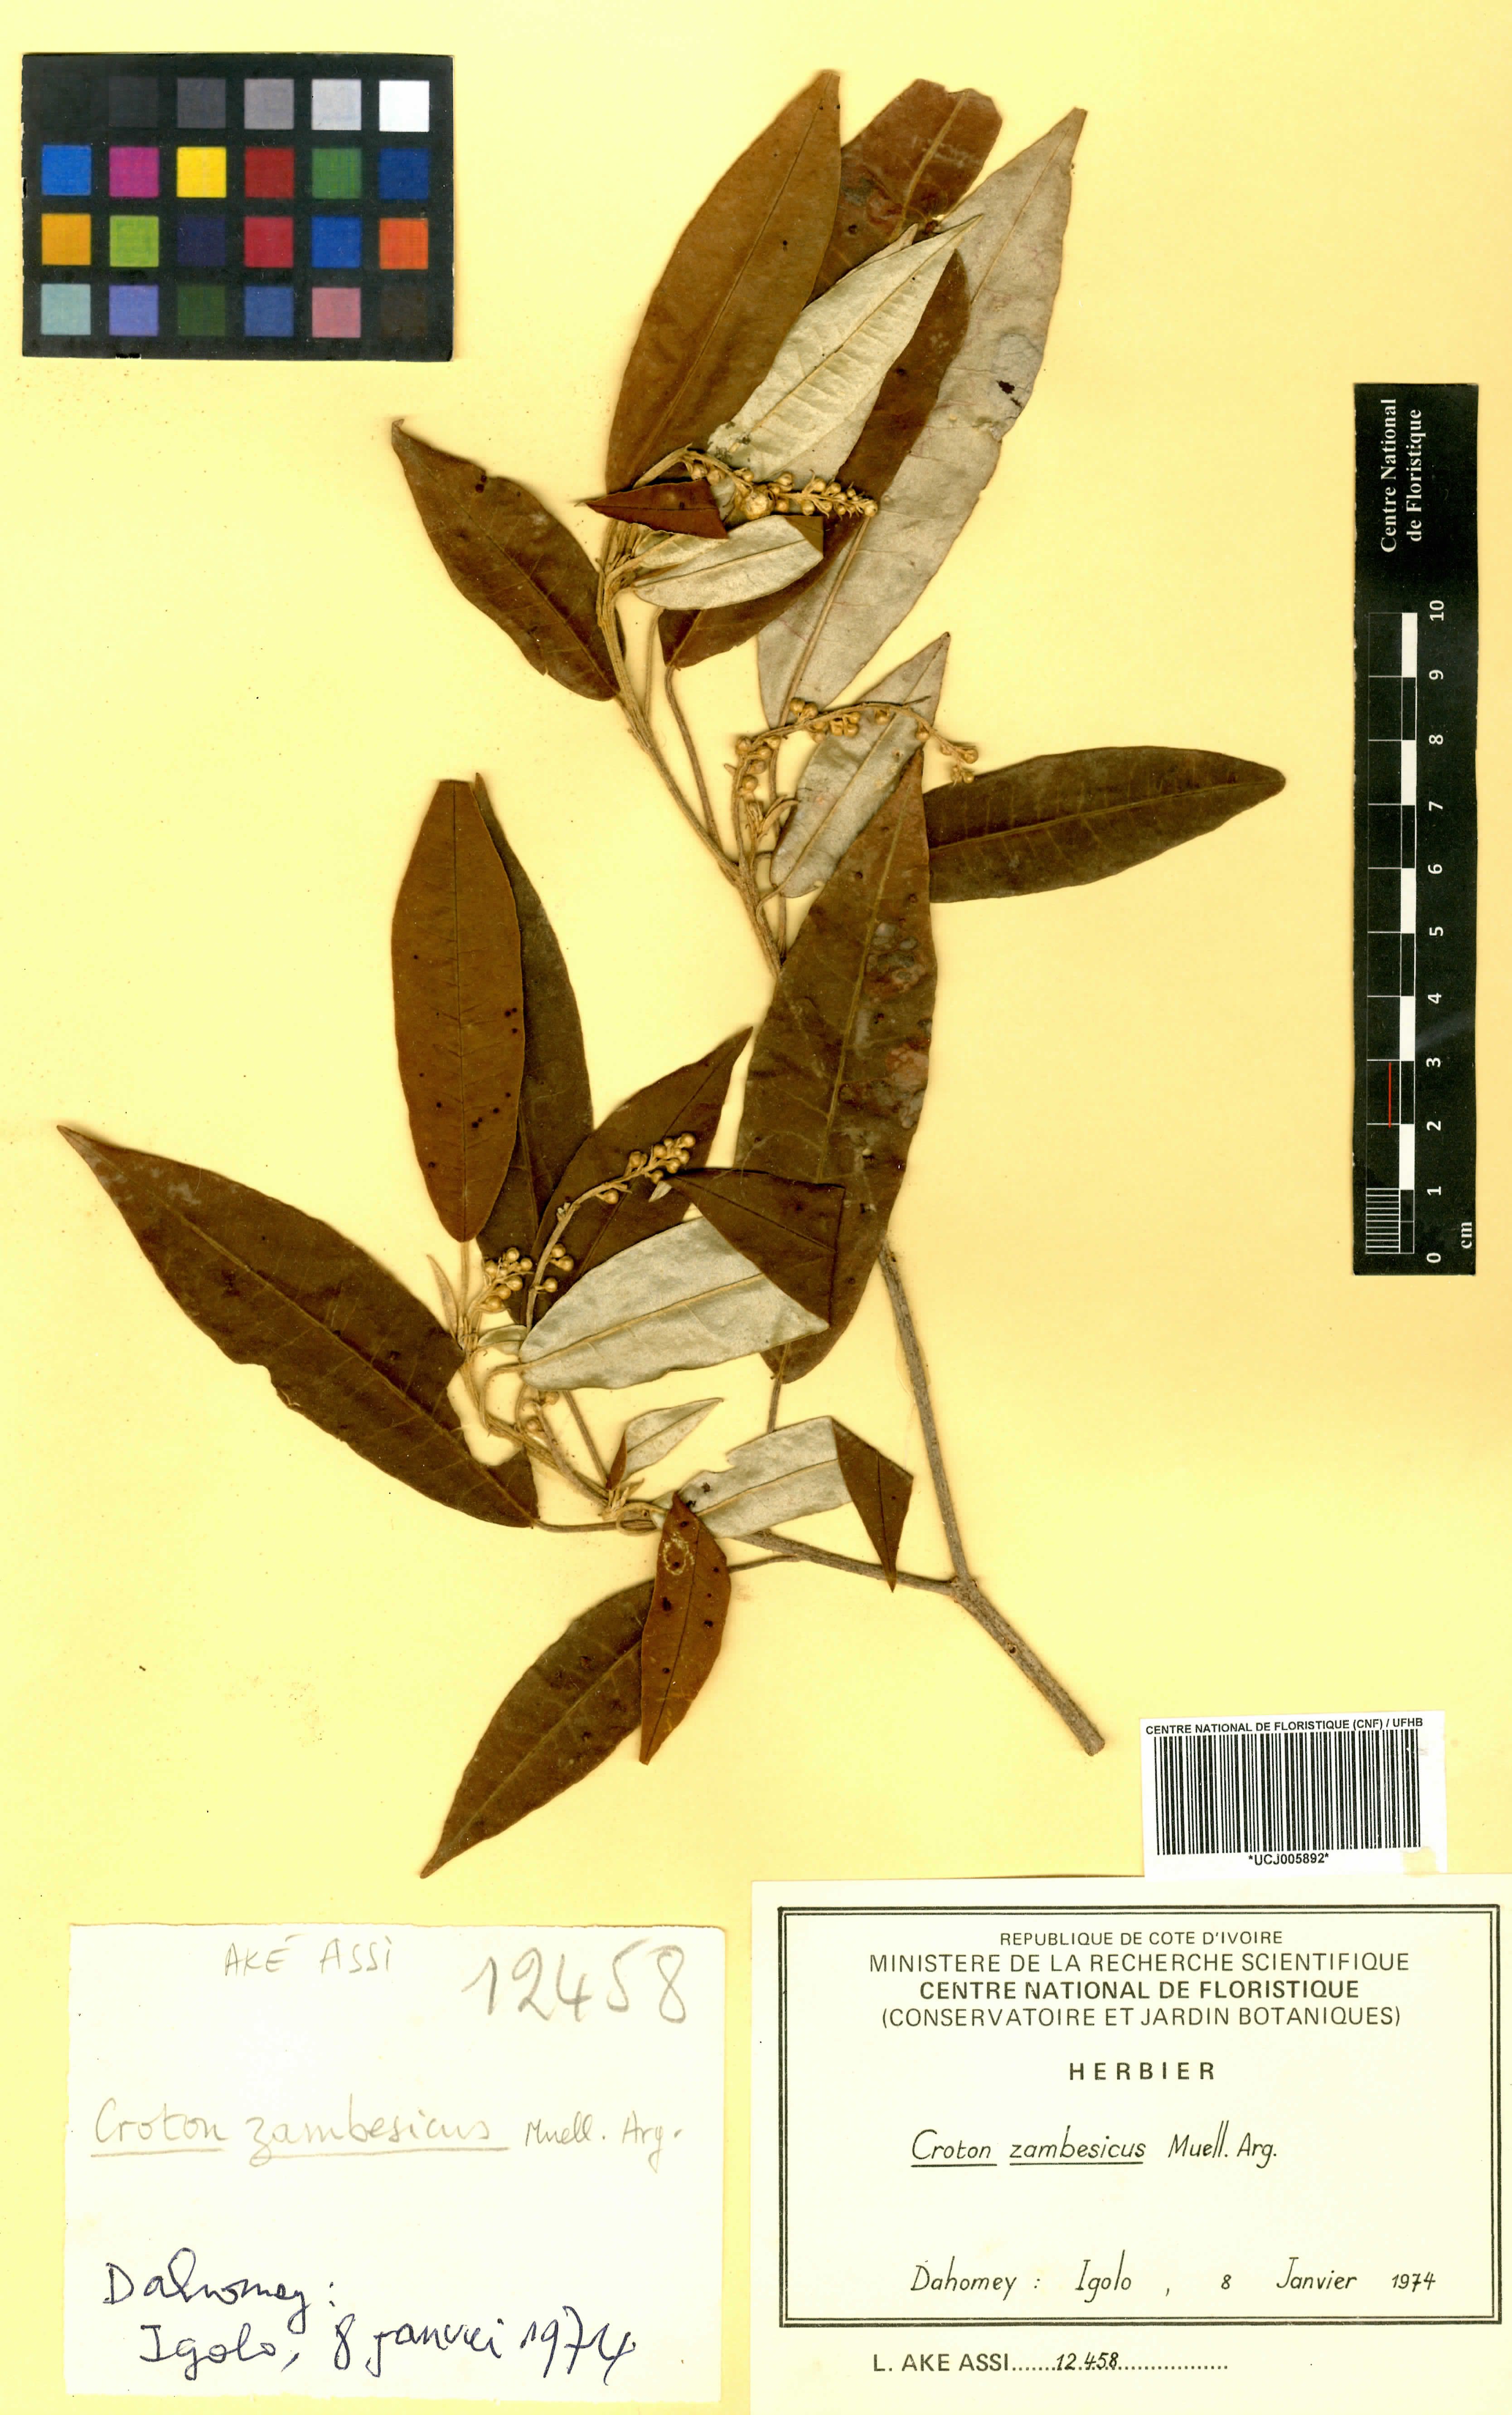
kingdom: Plantae
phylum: Tracheophyta
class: Magnoliopsida
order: Malpighiales
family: Euphorbiaceae
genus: Croton
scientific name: Croton gratissimus
